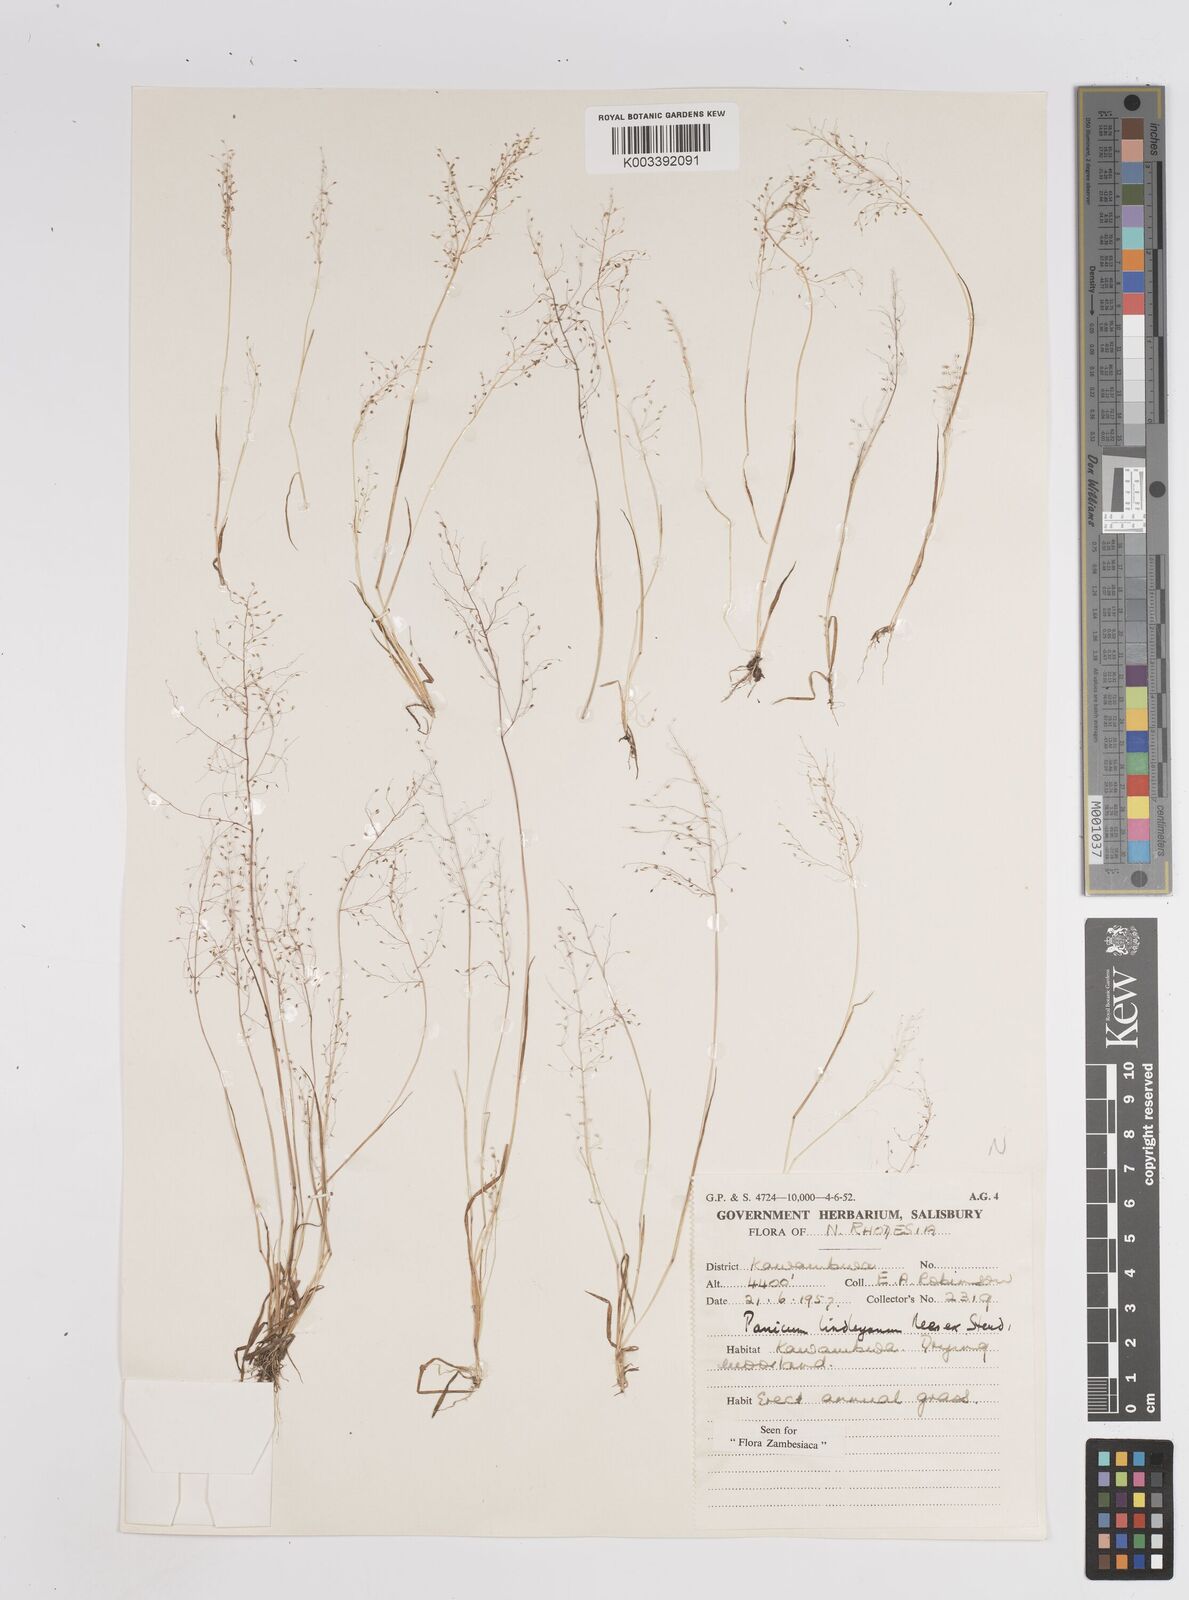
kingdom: Plantae
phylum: Tracheophyta
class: Liliopsida
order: Poales
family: Poaceae
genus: Trichanthecium
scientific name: Trichanthecium tenellum
